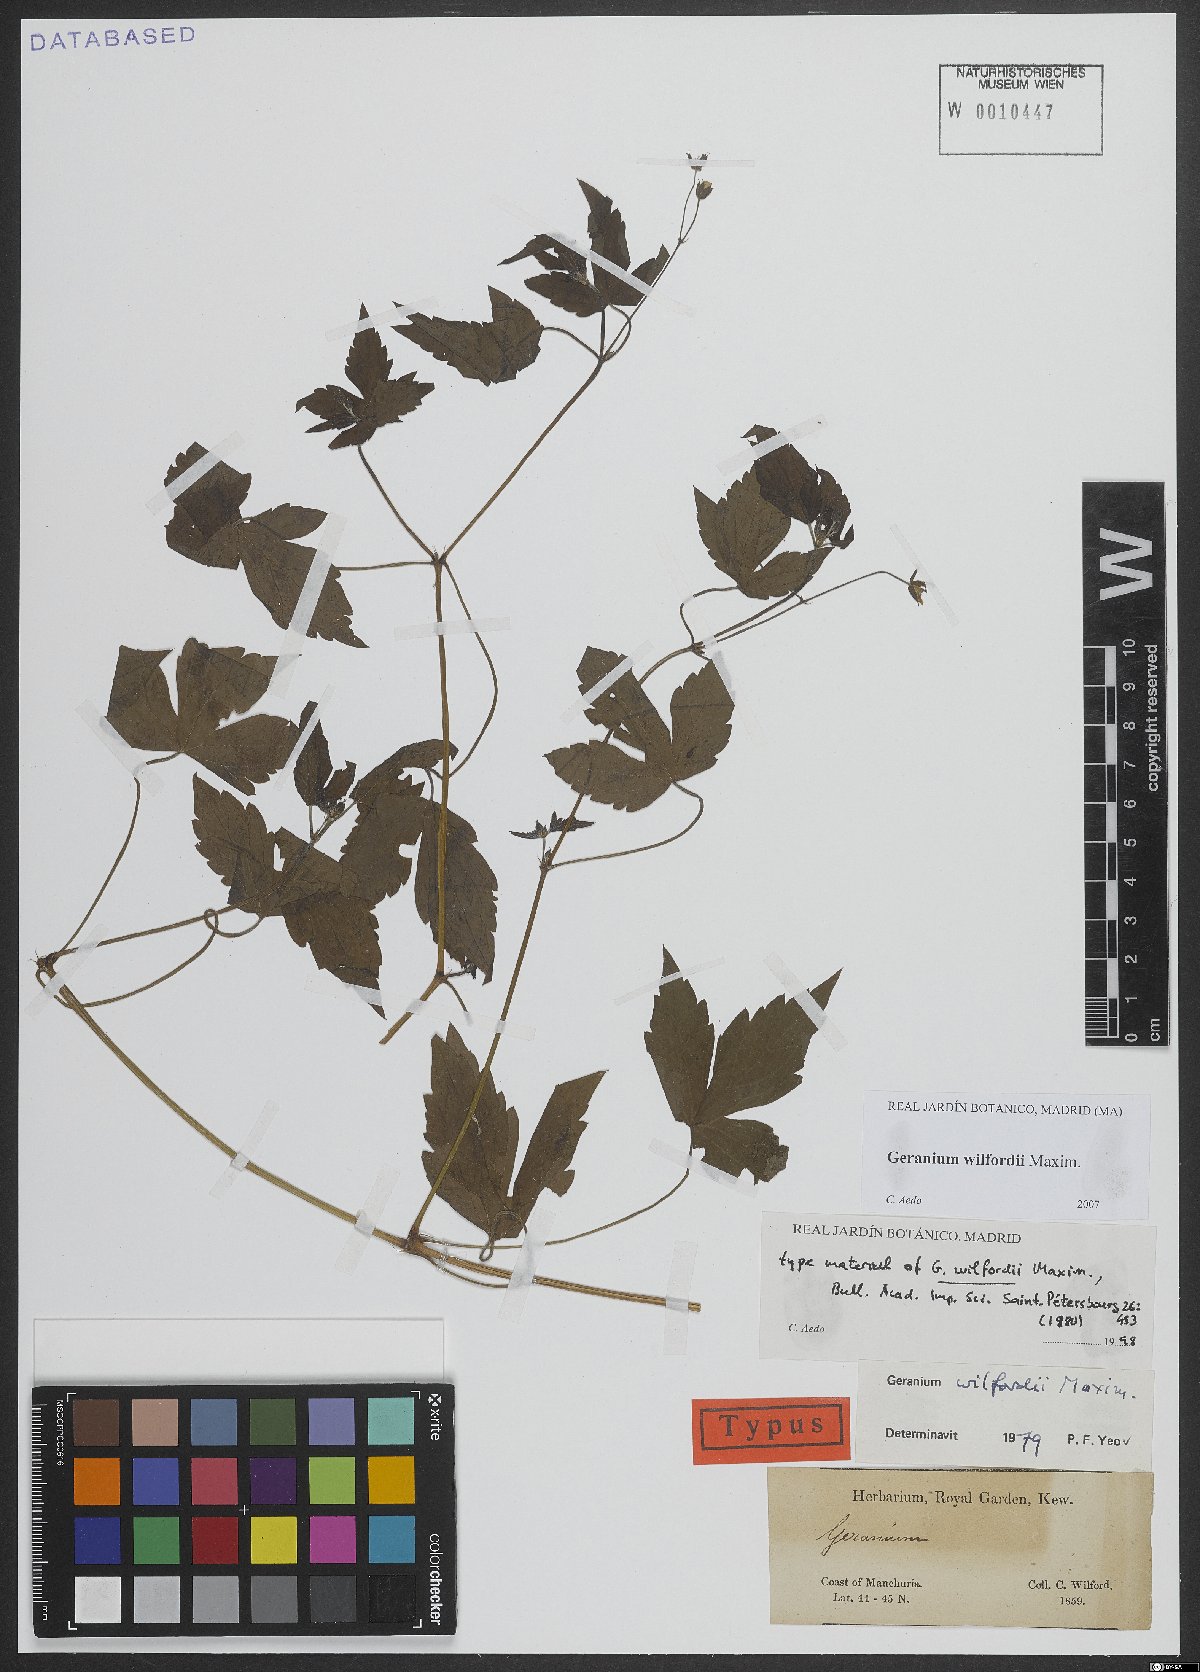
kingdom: Plantae
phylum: Tracheophyta
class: Magnoliopsida
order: Geraniales
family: Geraniaceae
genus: Geranium
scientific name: Geranium wilfordii
